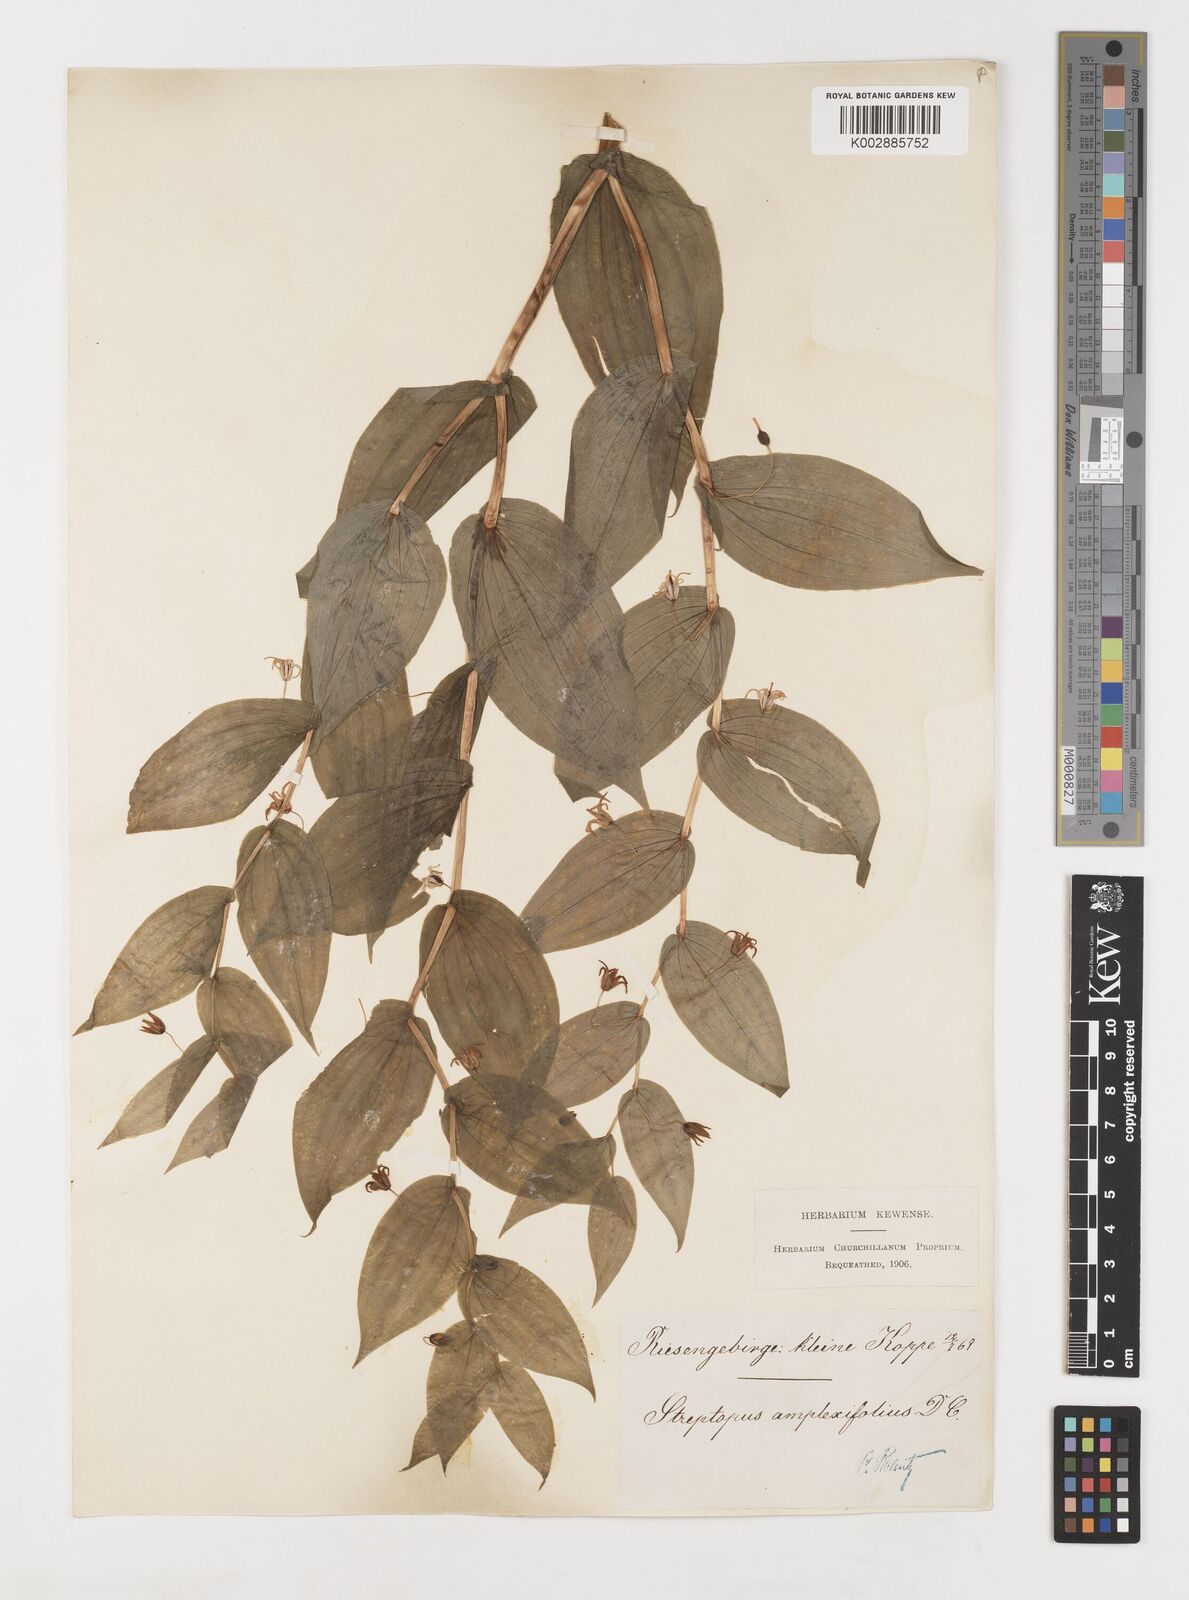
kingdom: Plantae
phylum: Tracheophyta
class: Liliopsida
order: Liliales
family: Liliaceae
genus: Streptopus
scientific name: Streptopus amplexifolius
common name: Clasp twisted stalk
